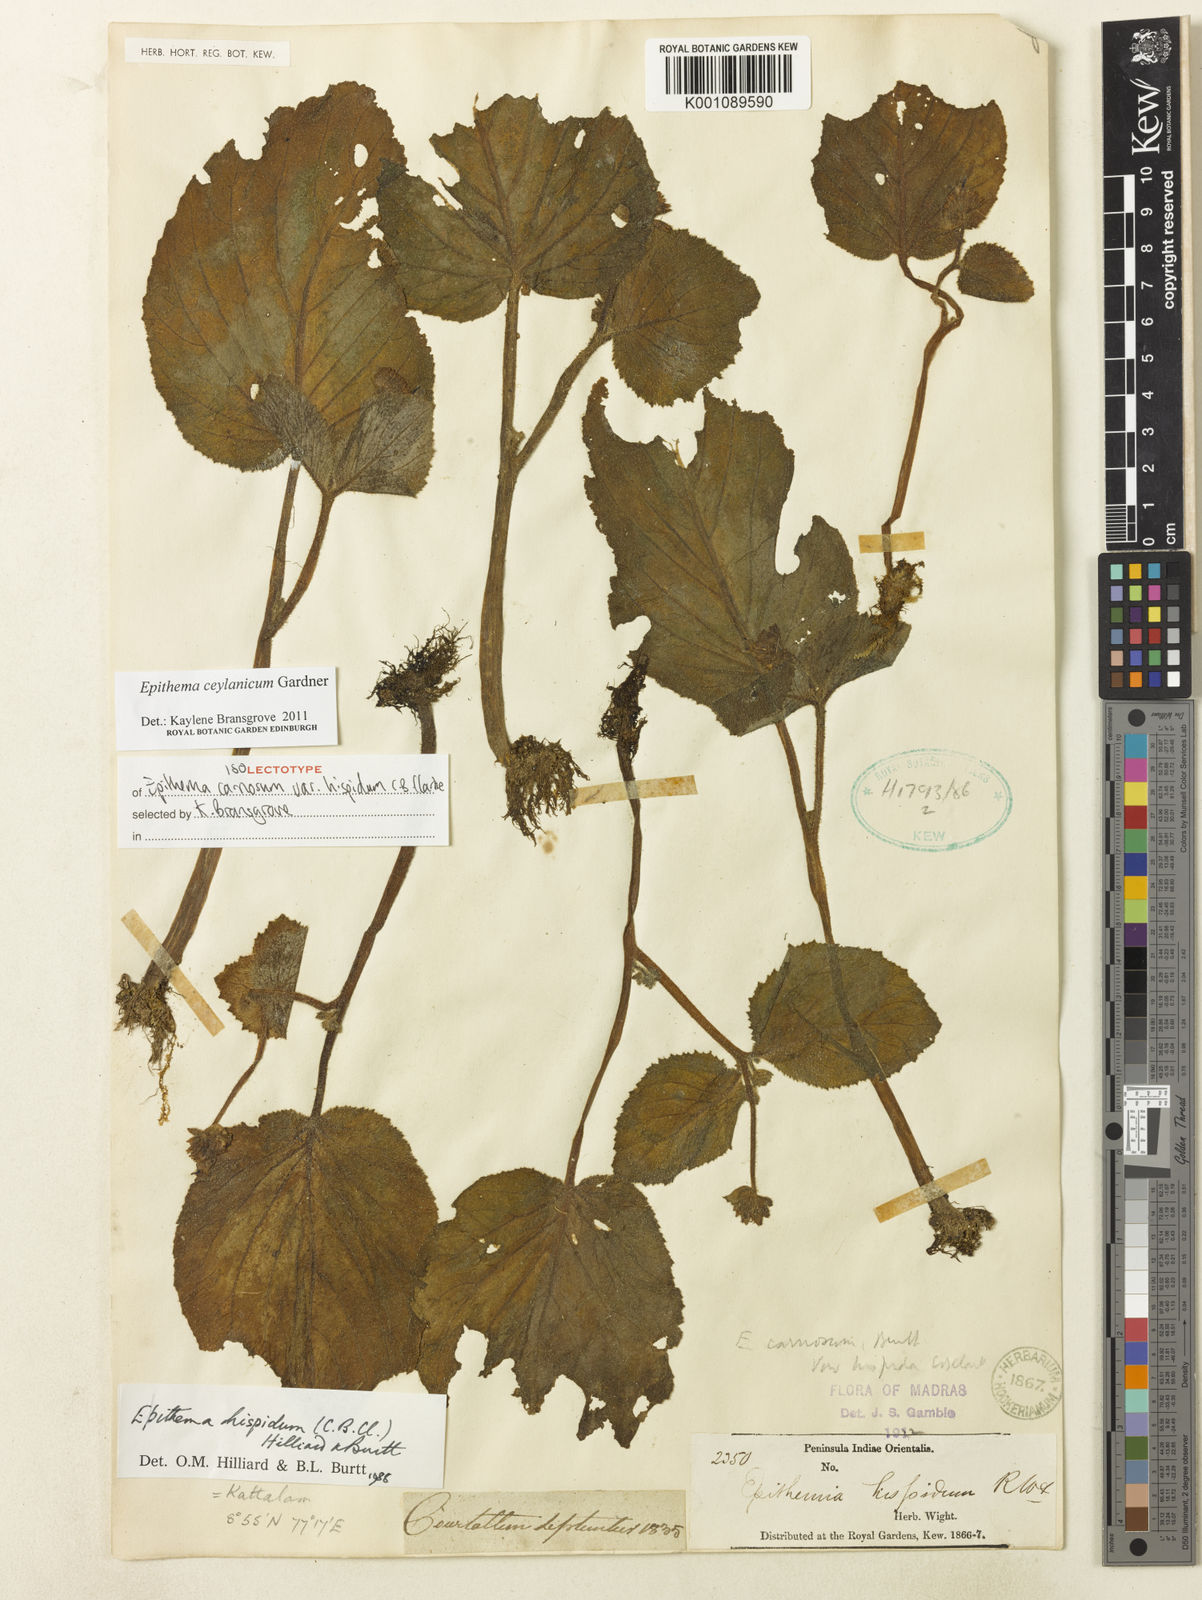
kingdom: Plantae
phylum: Tracheophyta
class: Magnoliopsida
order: Lamiales
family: Gesneriaceae
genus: Epithema
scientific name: Epithema ceylanicum
